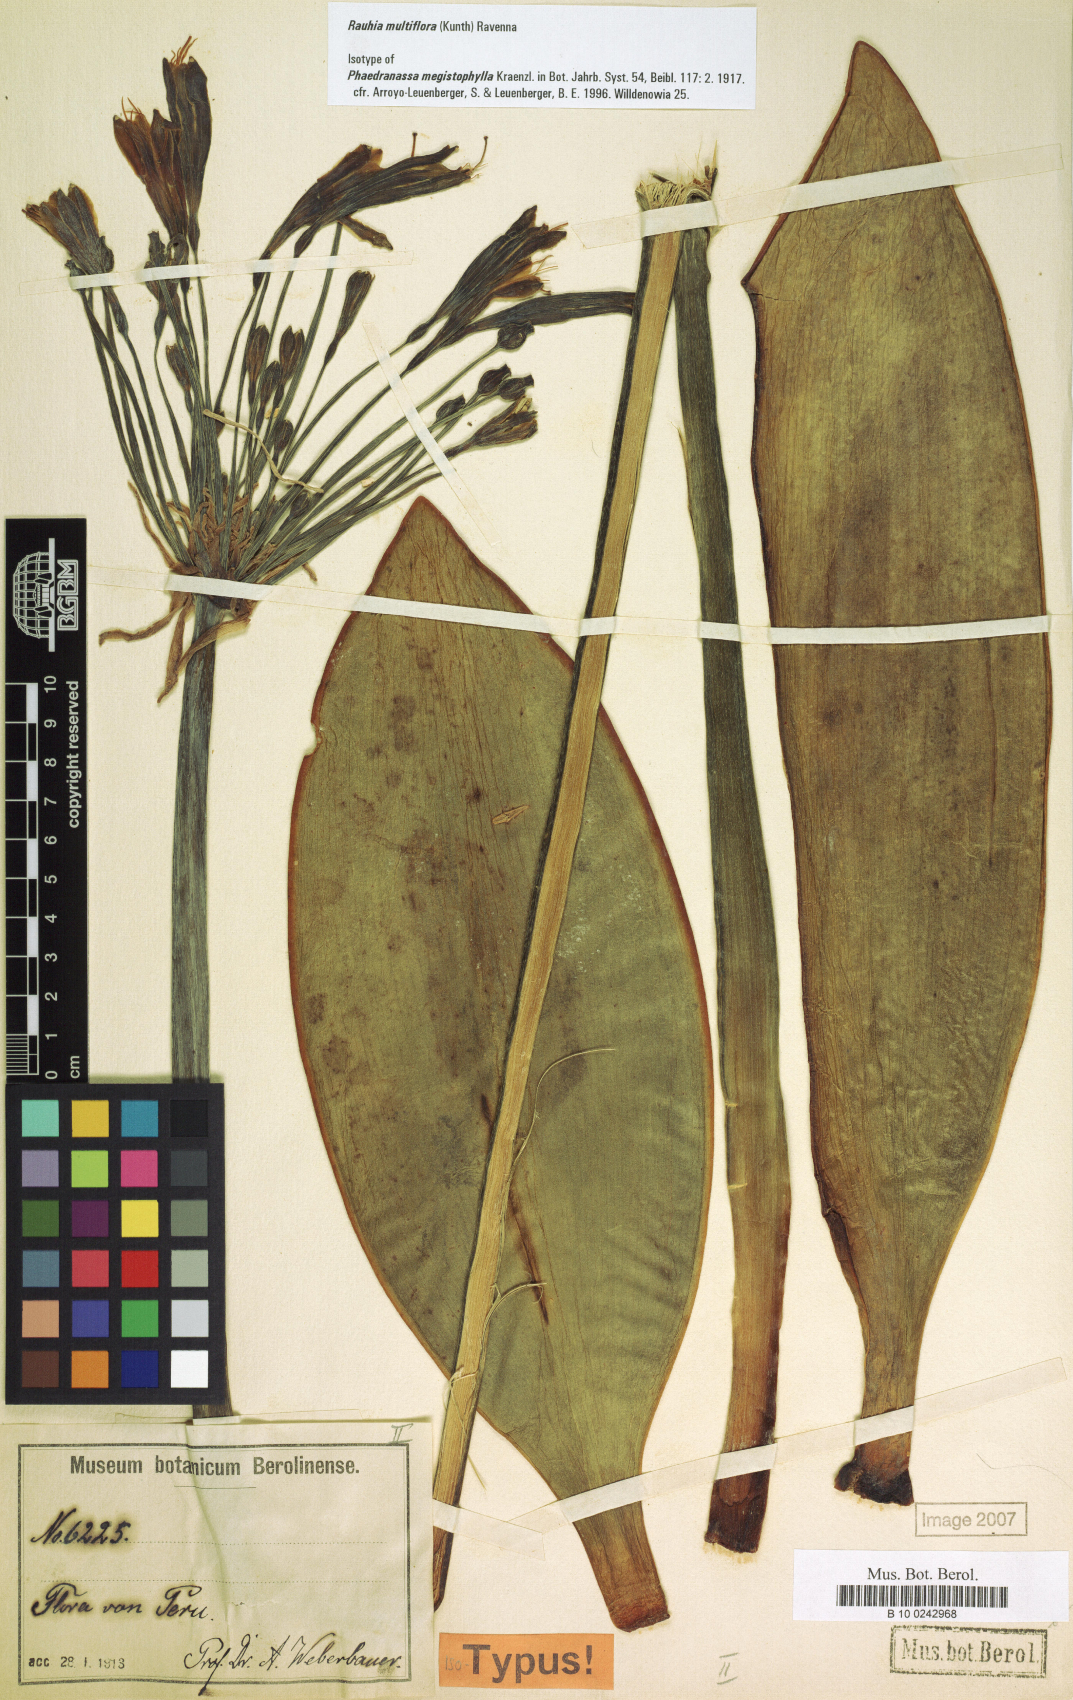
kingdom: Plantae
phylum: Tracheophyta
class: Liliopsida
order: Asparagales
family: Amaryllidaceae
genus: Rauhia
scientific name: Rauhia multiflora
